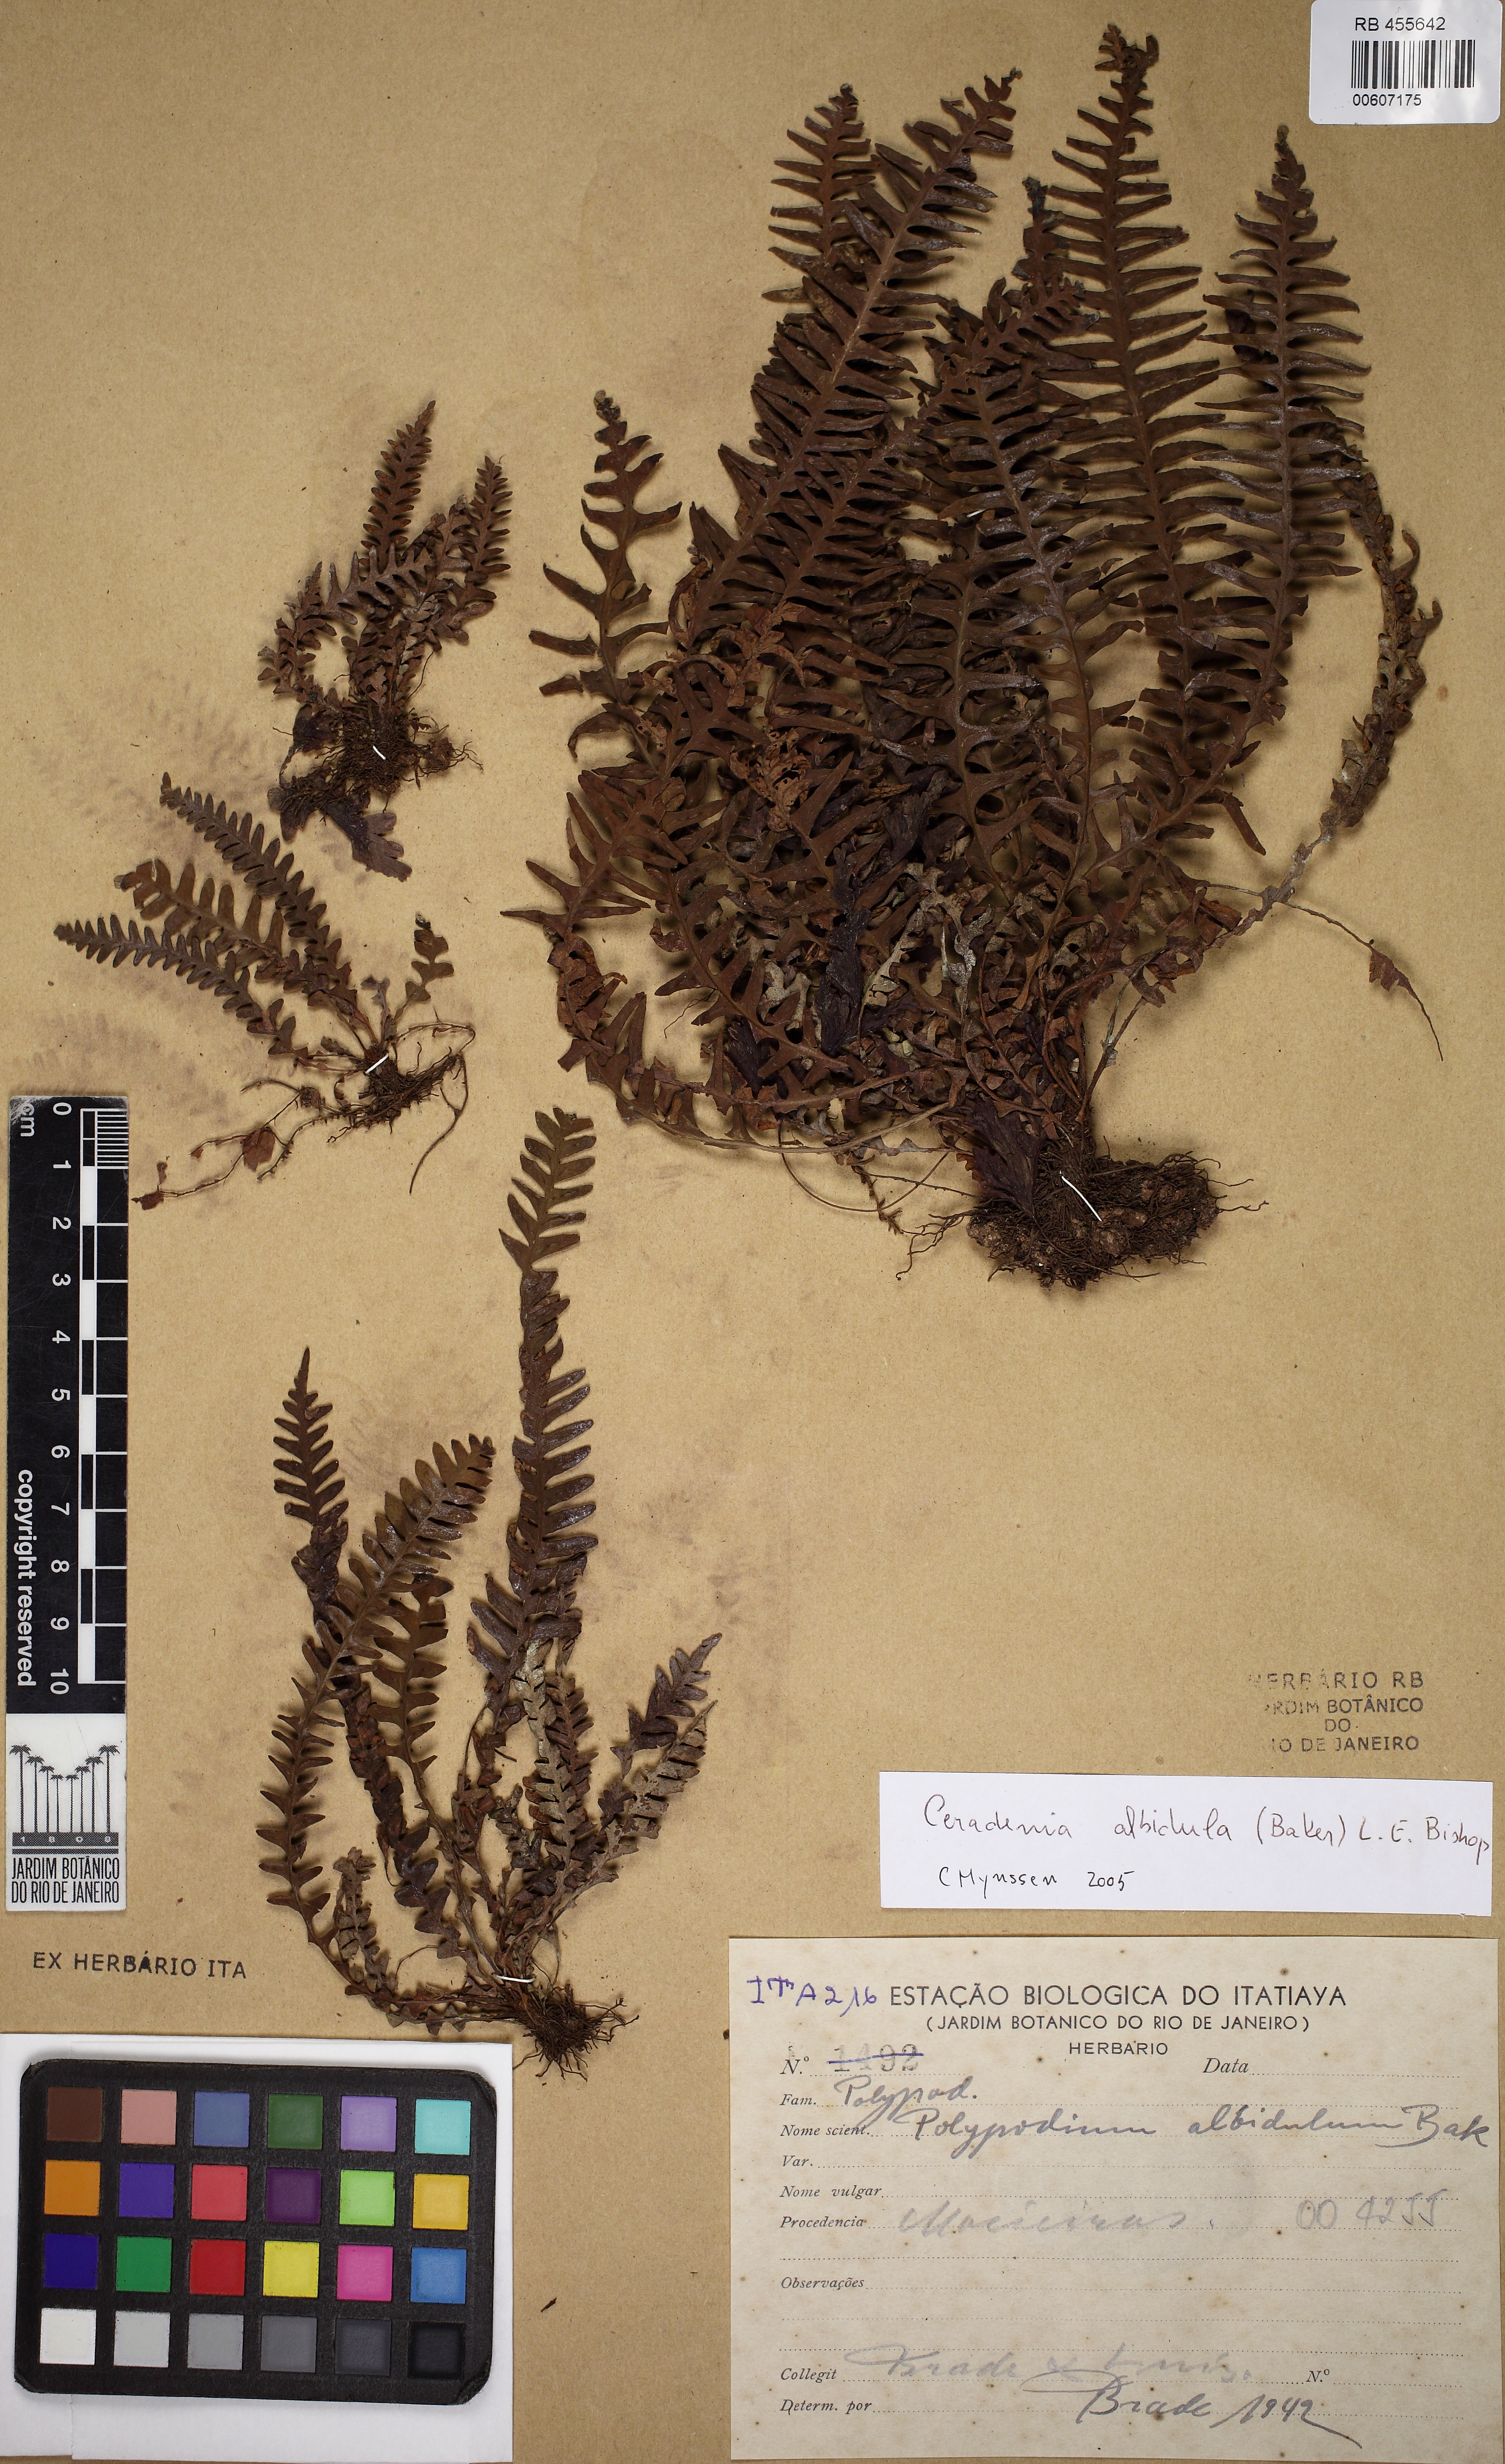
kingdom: Plantae
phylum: Tracheophyta
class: Polypodiopsida
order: Polypodiales
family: Polypodiaceae
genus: Ceradenia
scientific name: Ceradenia albidula
